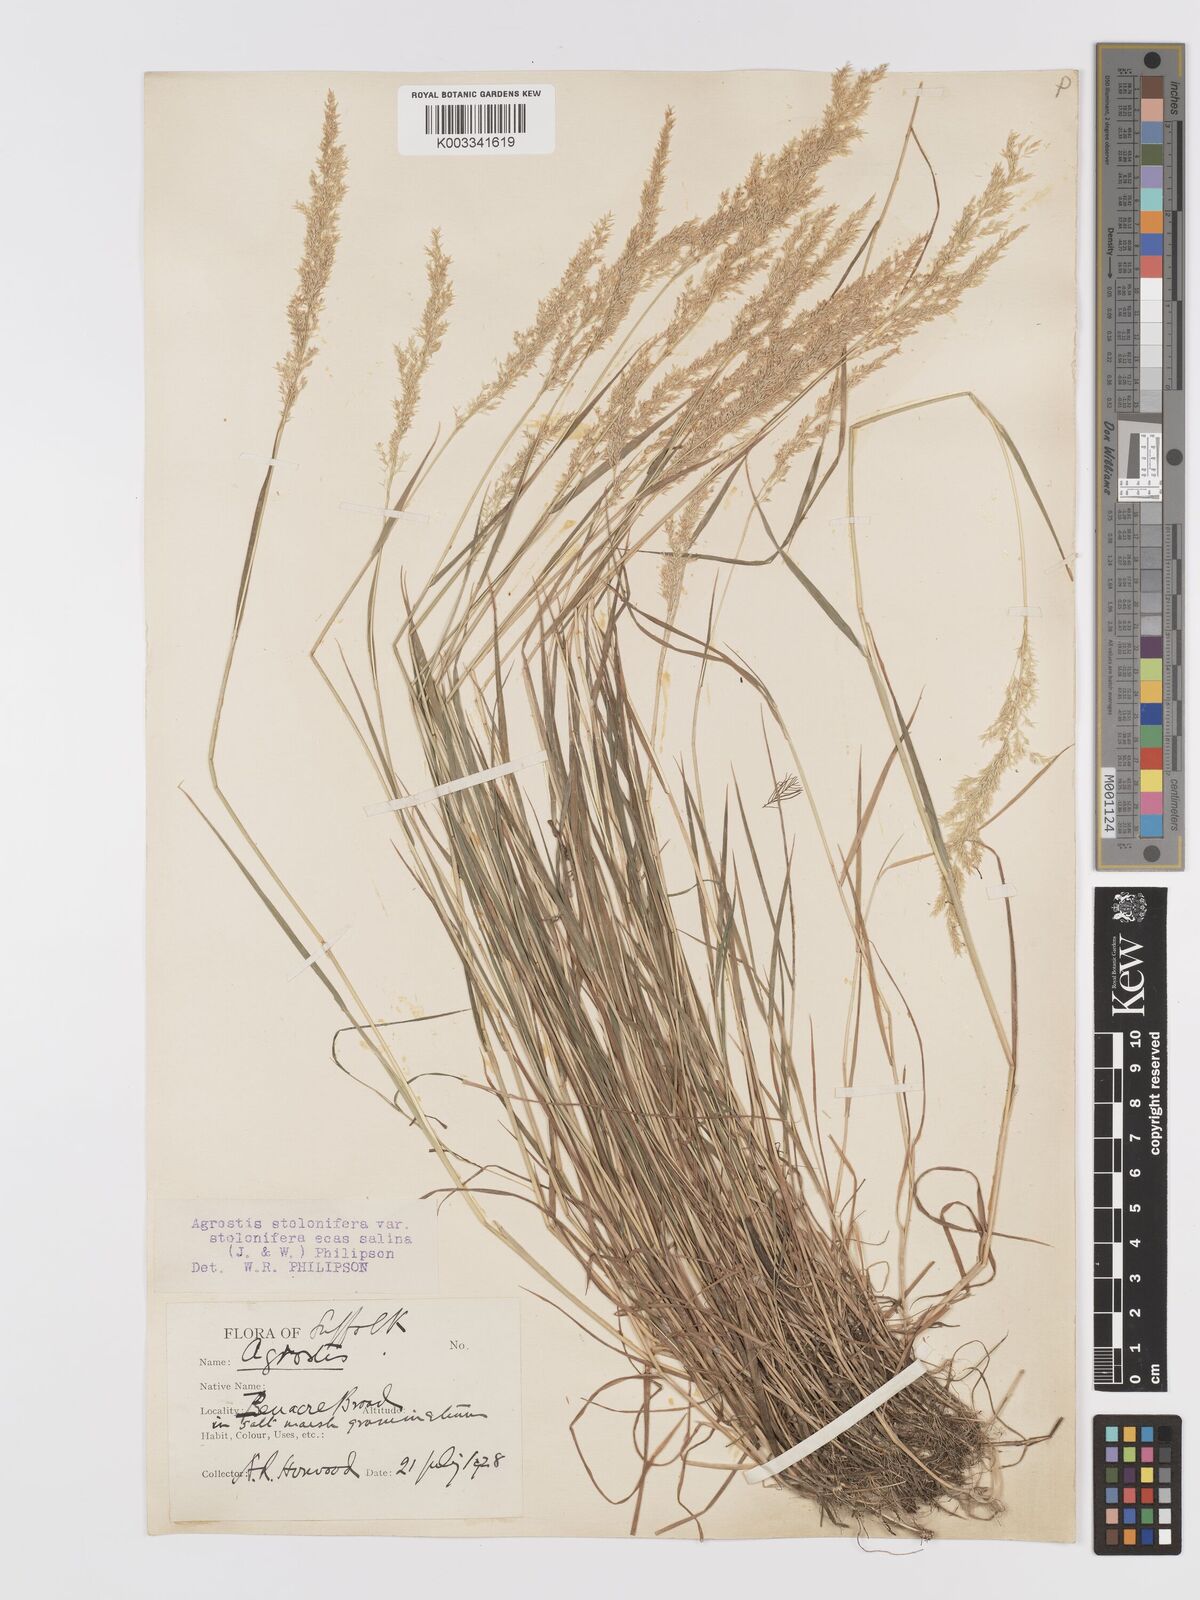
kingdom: Plantae
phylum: Tracheophyta
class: Liliopsida
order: Poales
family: Poaceae
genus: Agrostis
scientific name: Agrostis stolonifera
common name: Creeping bentgrass
